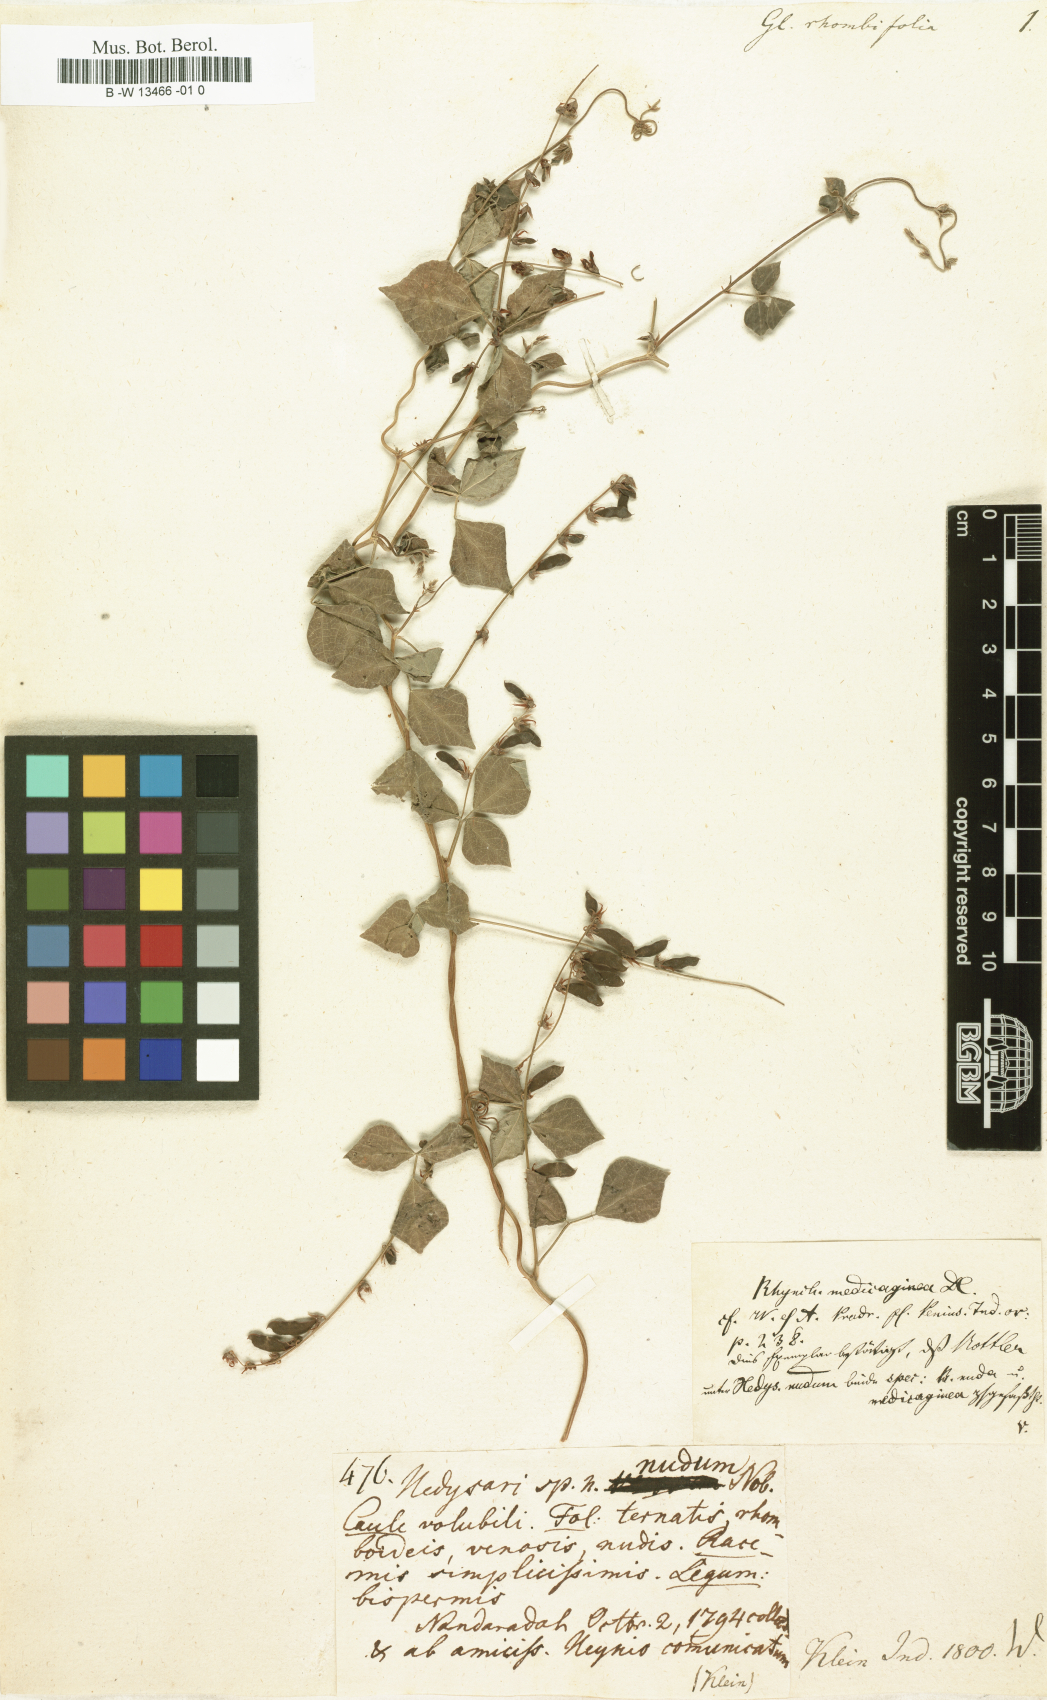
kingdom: Plantae
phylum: Tracheophyta
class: Magnoliopsida
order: Fabales
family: Fabaceae
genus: Rhynchosia
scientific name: Rhynchosia
